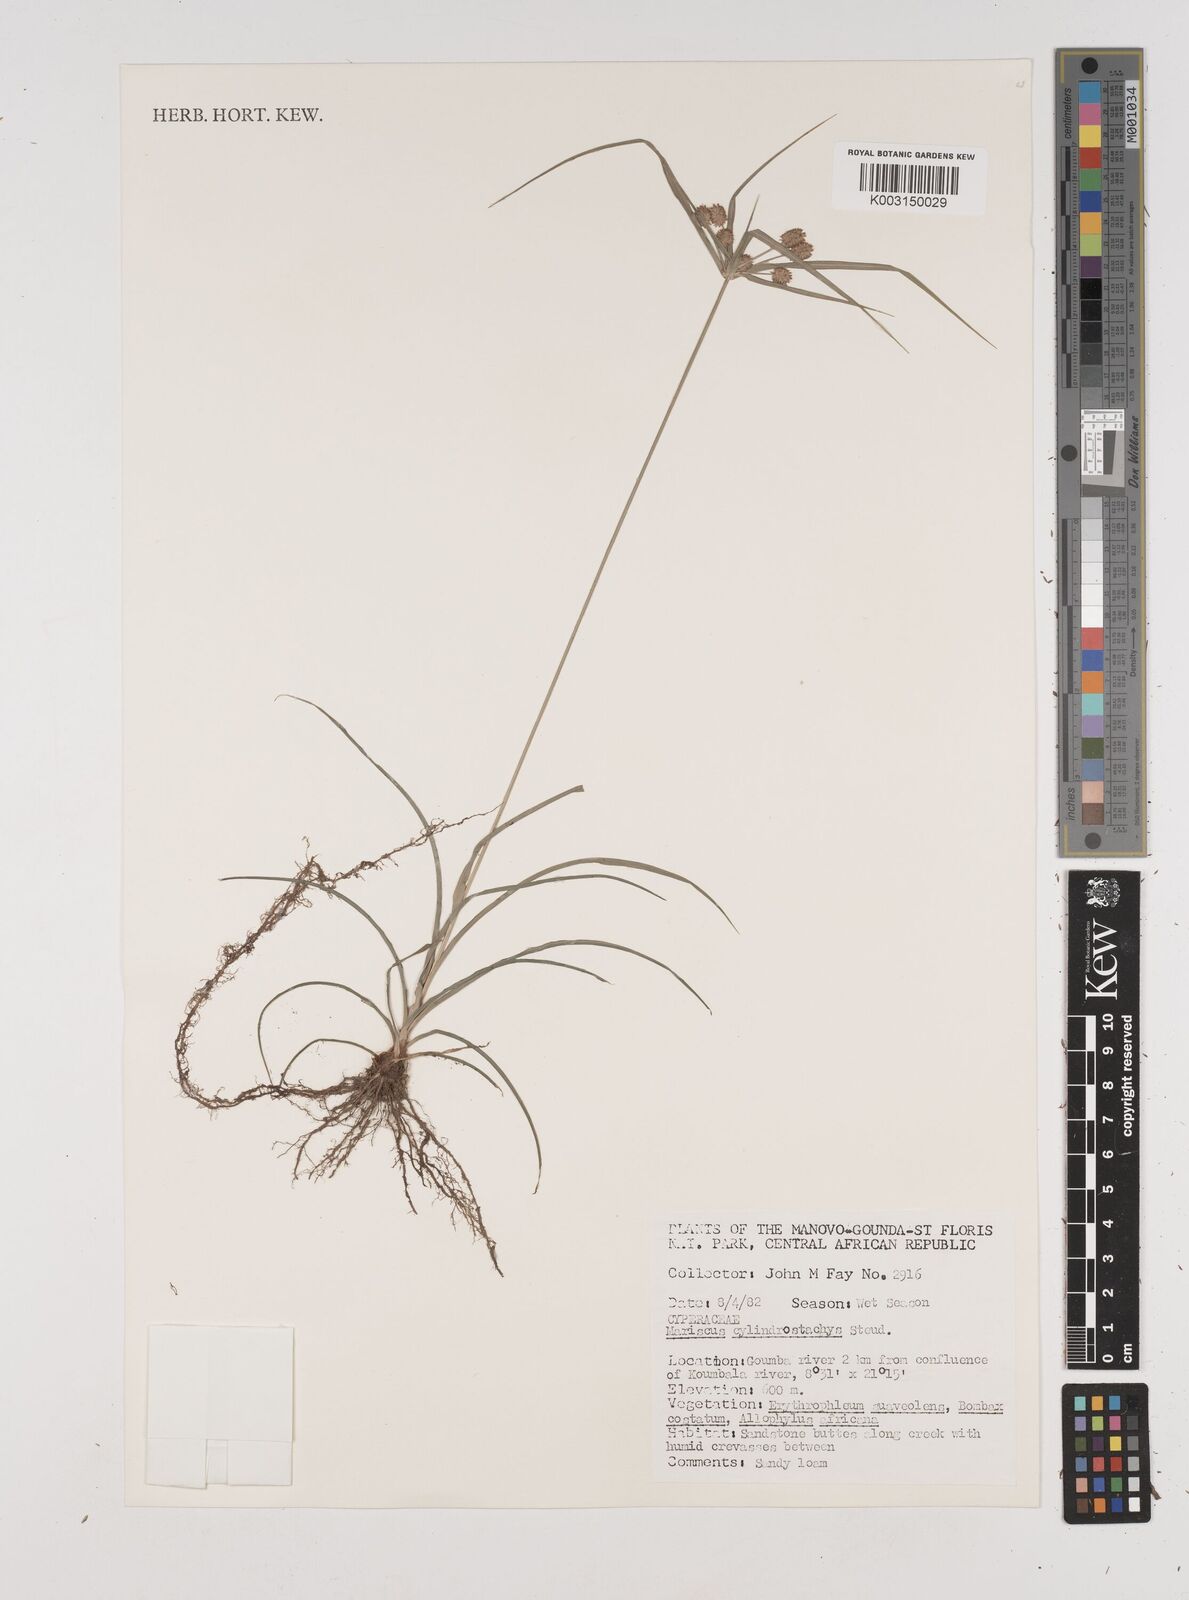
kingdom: Plantae
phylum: Tracheophyta
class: Liliopsida
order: Poales
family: Cyperaceae
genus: Cyperus
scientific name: Cyperus cyperoides
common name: Pacific island flat sedge
